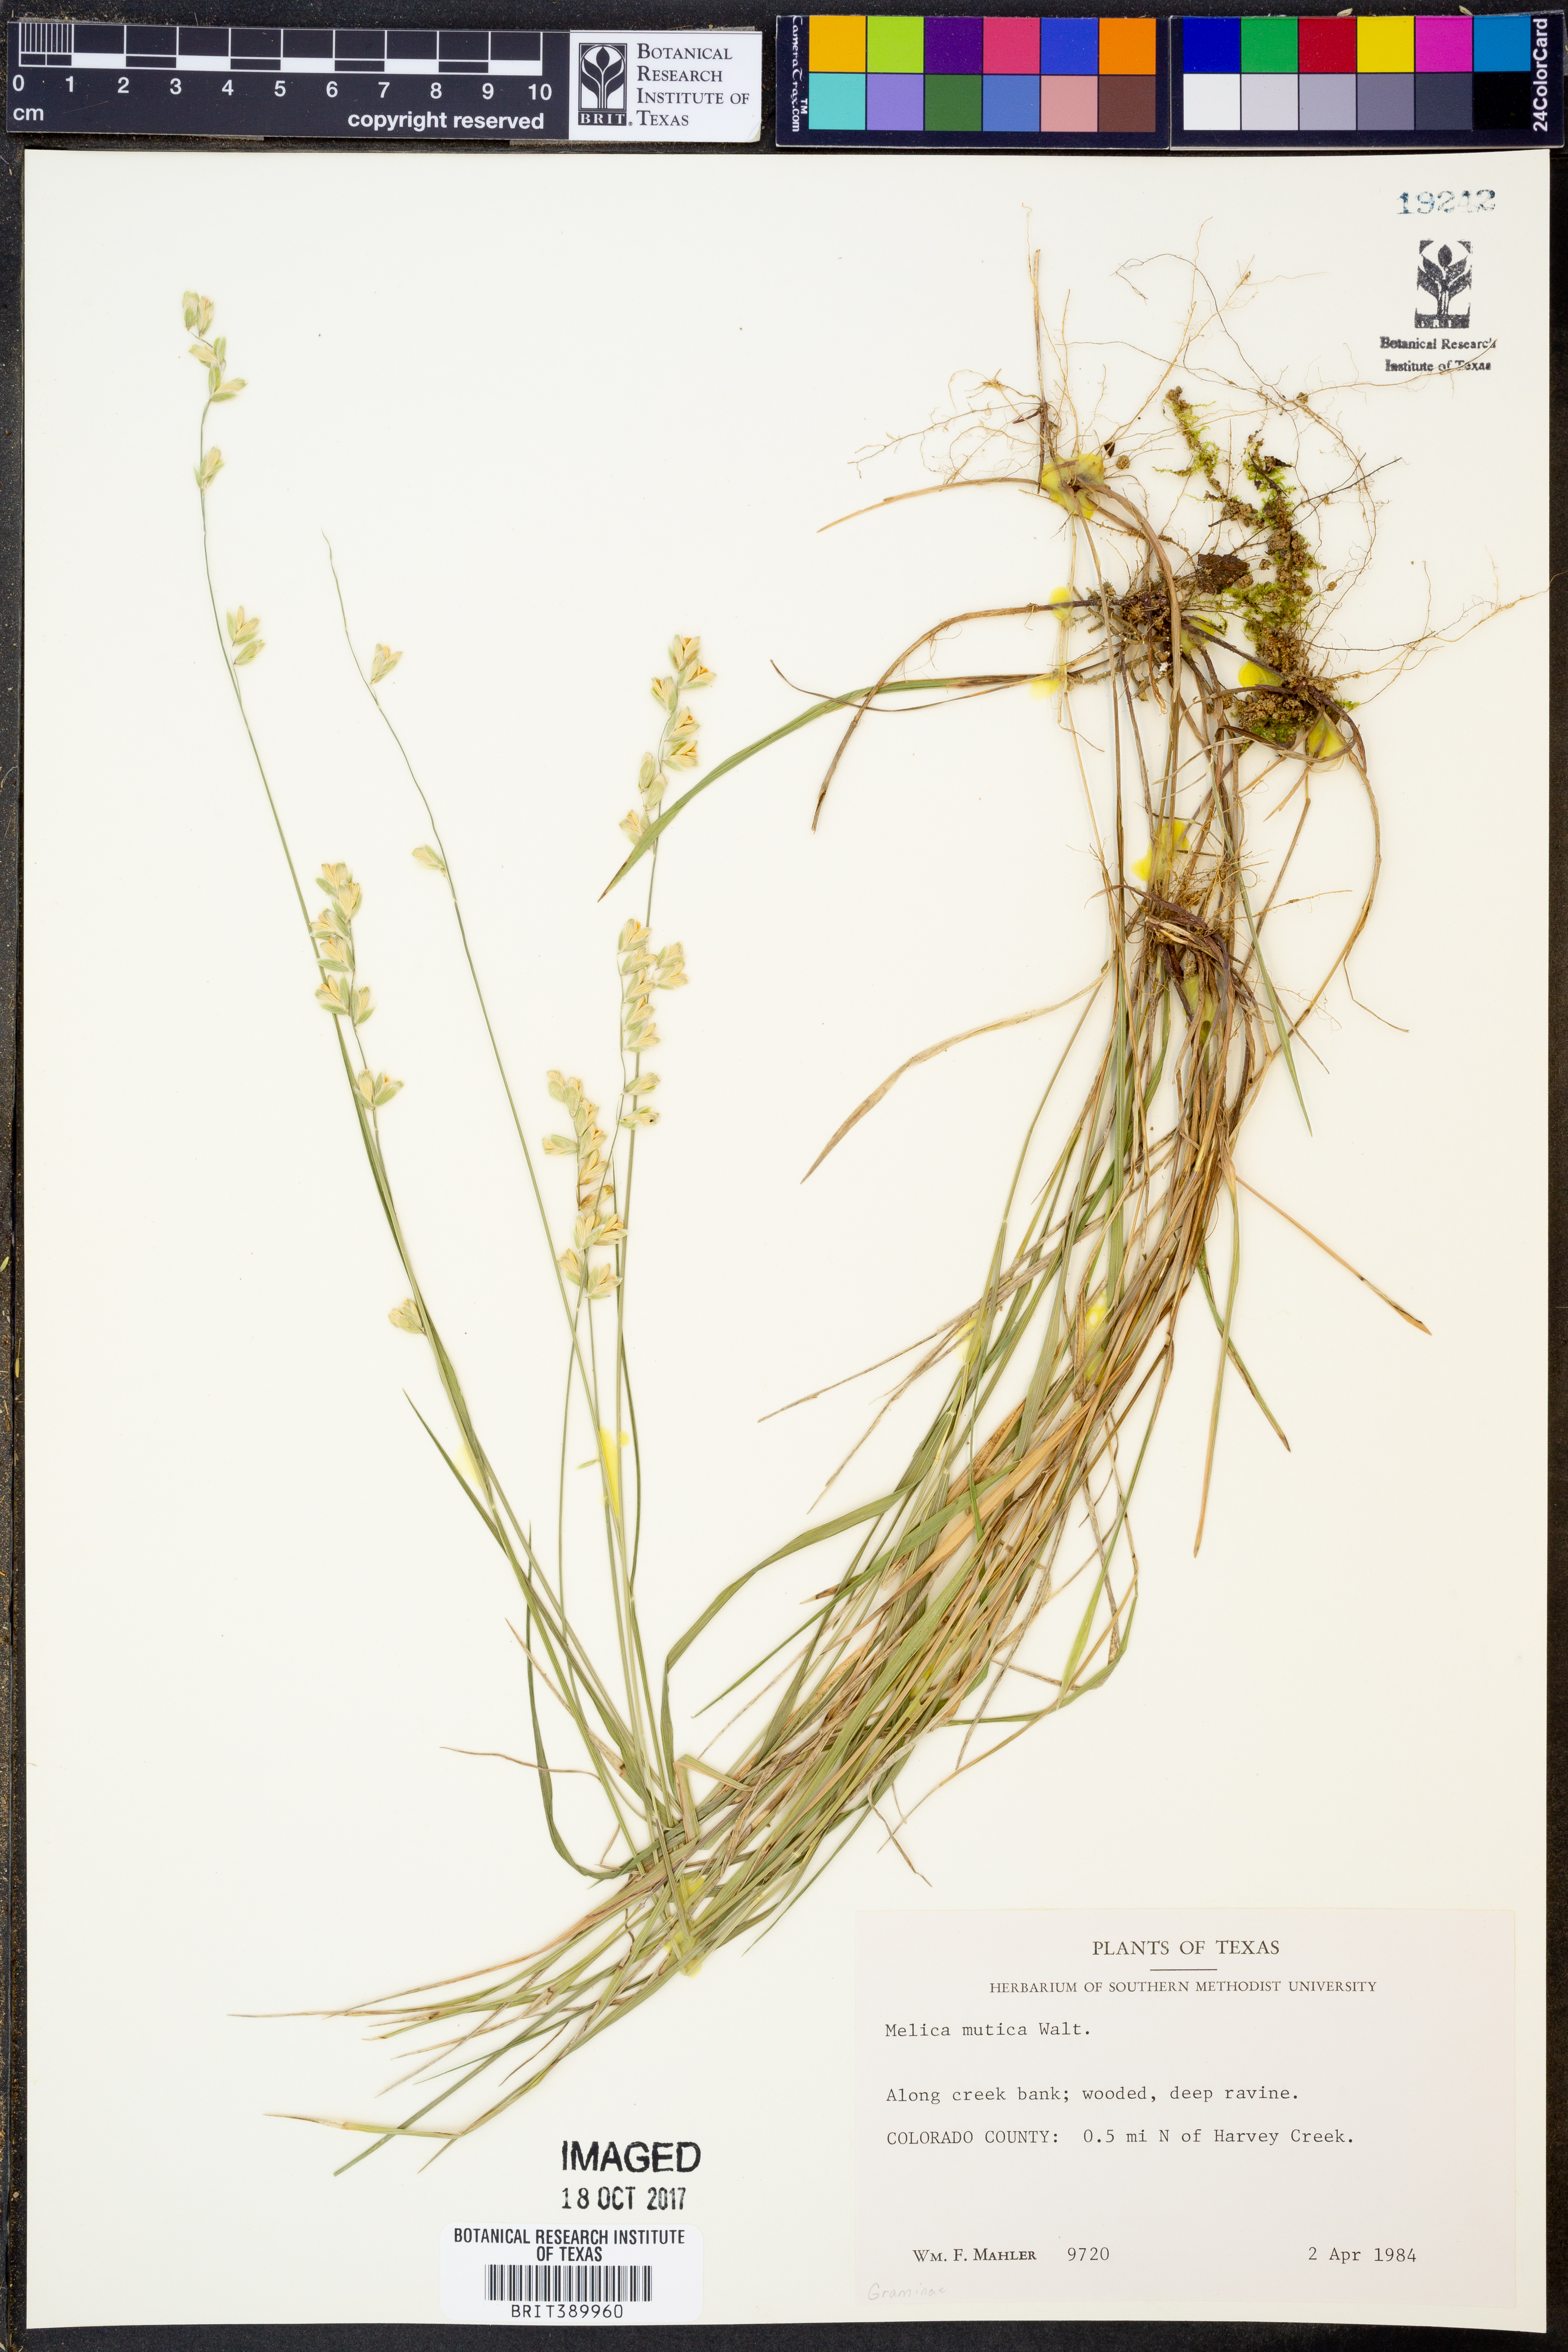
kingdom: Plantae
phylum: Tracheophyta
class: Liliopsida
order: Poales
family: Poaceae
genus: Melica
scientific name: Melica mutica
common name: Two-flower melic
